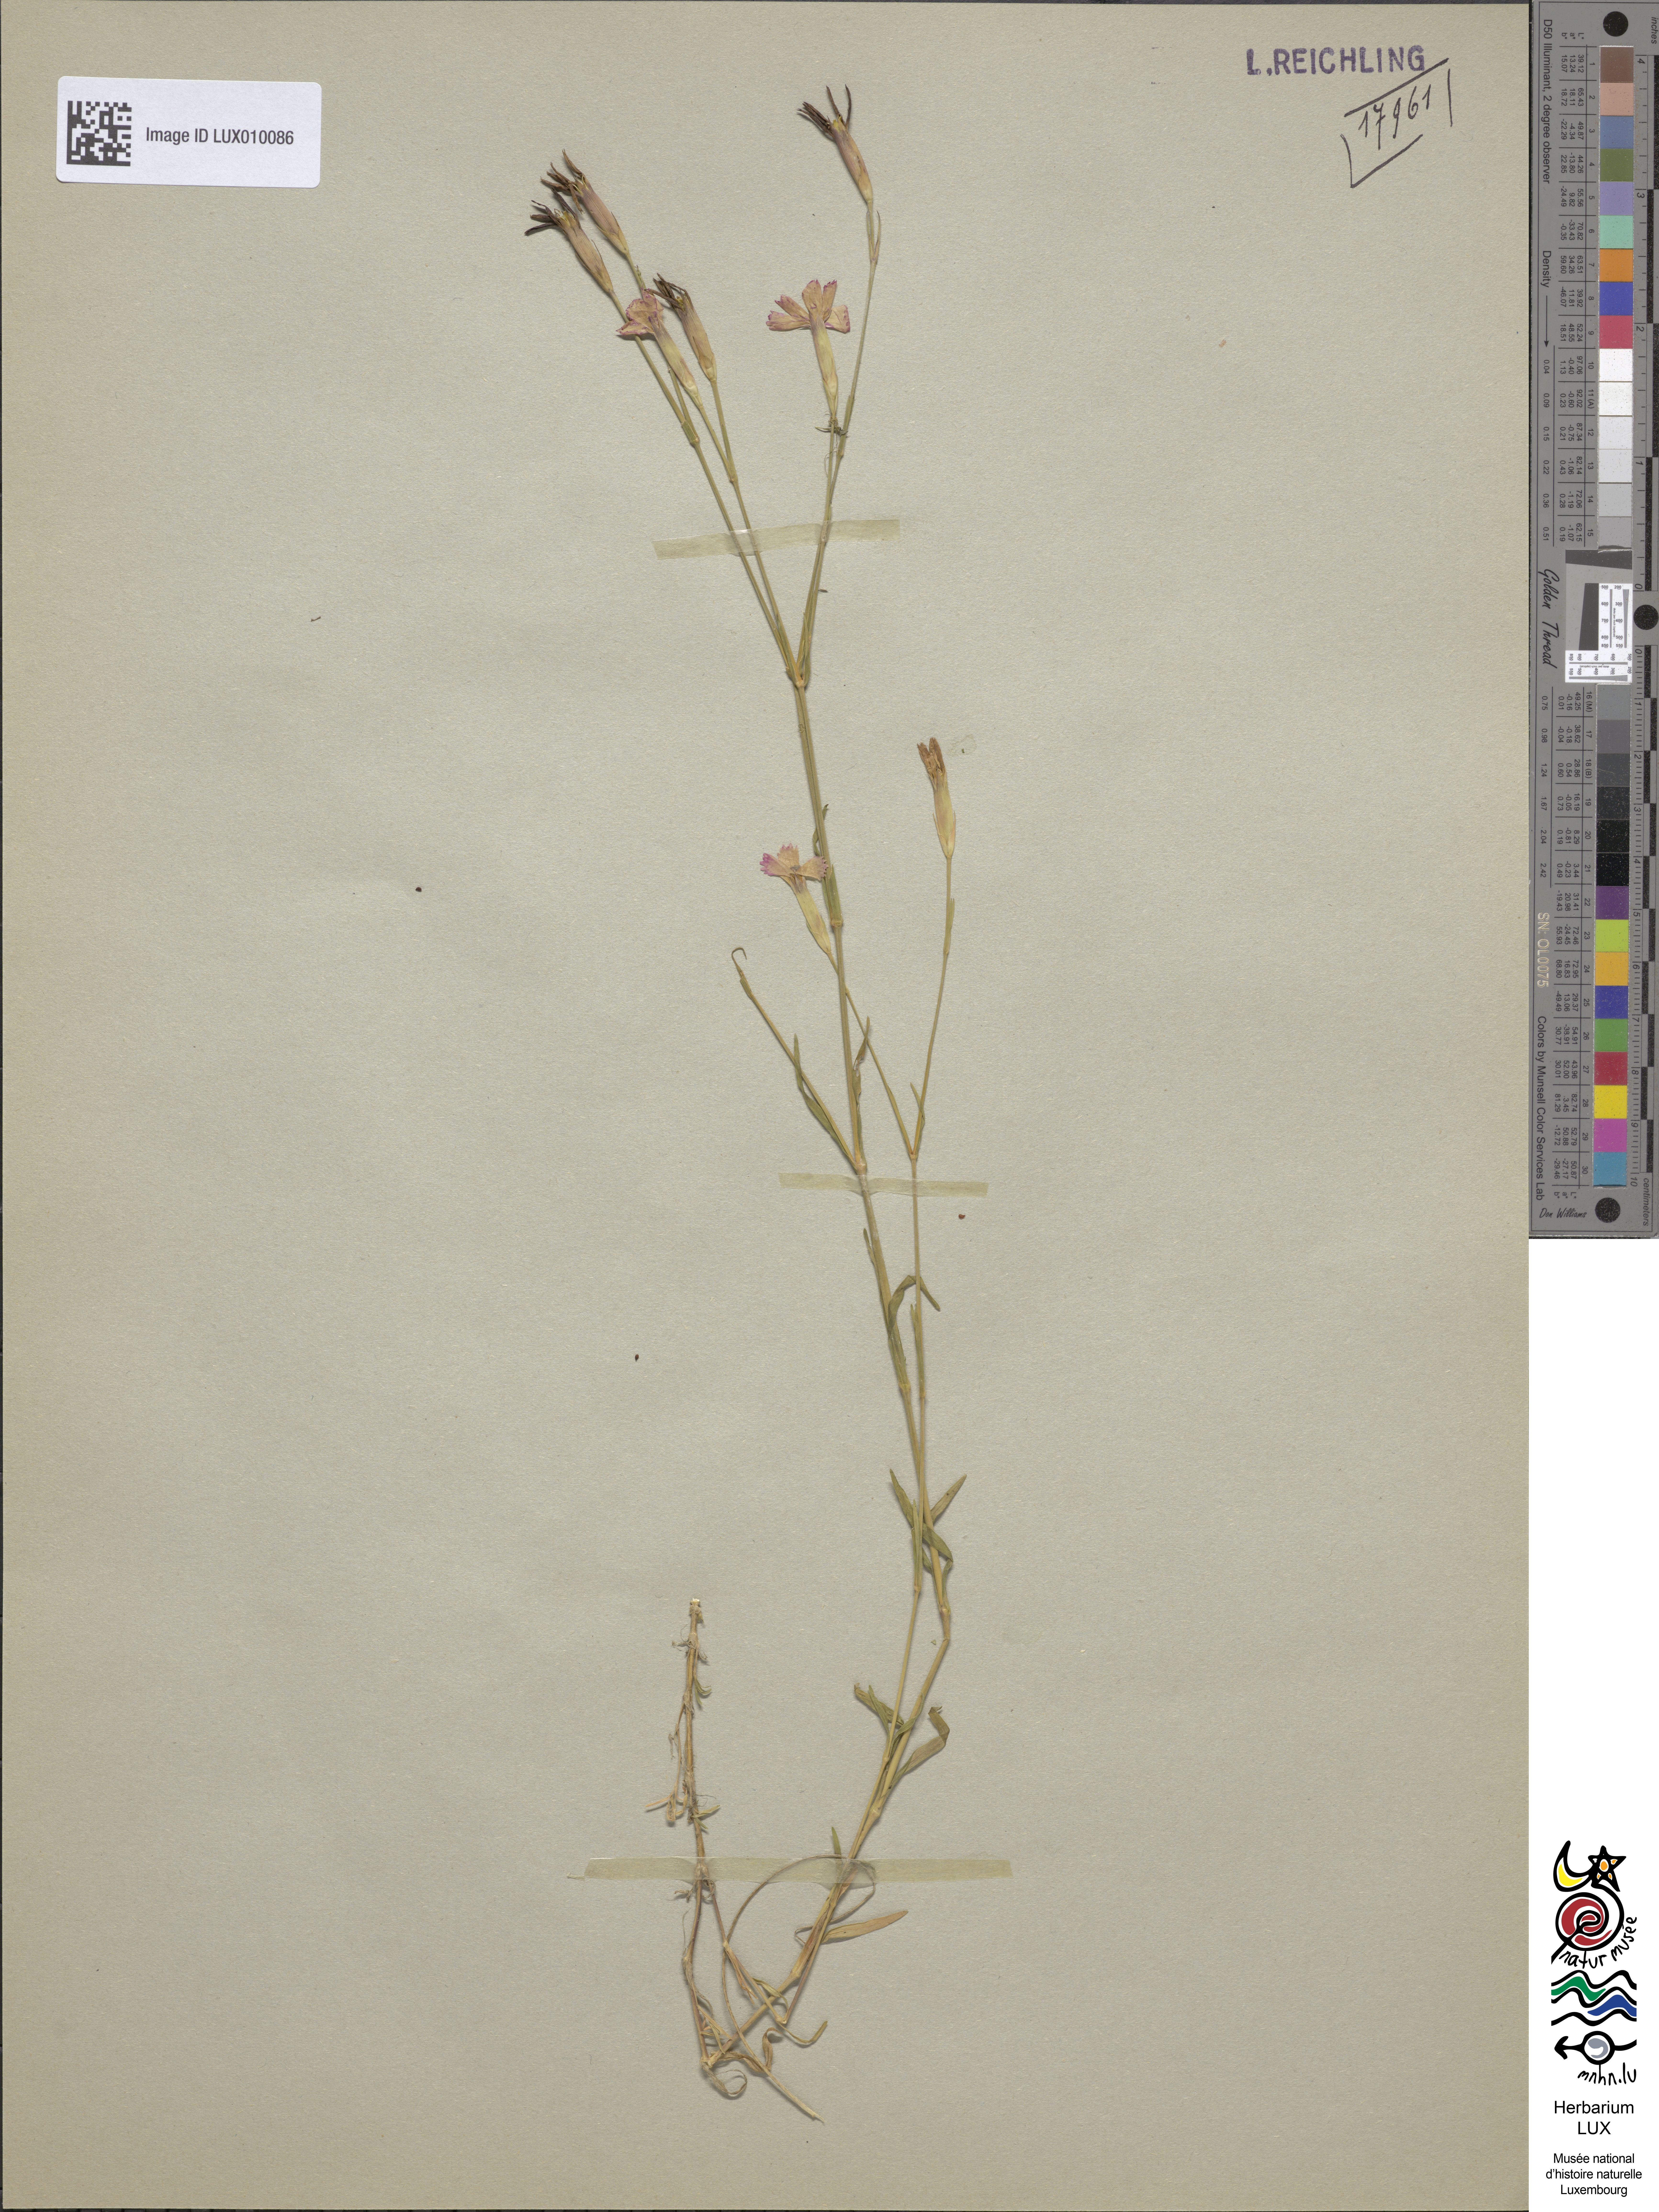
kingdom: Plantae
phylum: Tracheophyta
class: Magnoliopsida
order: Caryophyllales
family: Caryophyllaceae
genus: Dianthus
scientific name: Dianthus deltoides
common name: Maiden pink
